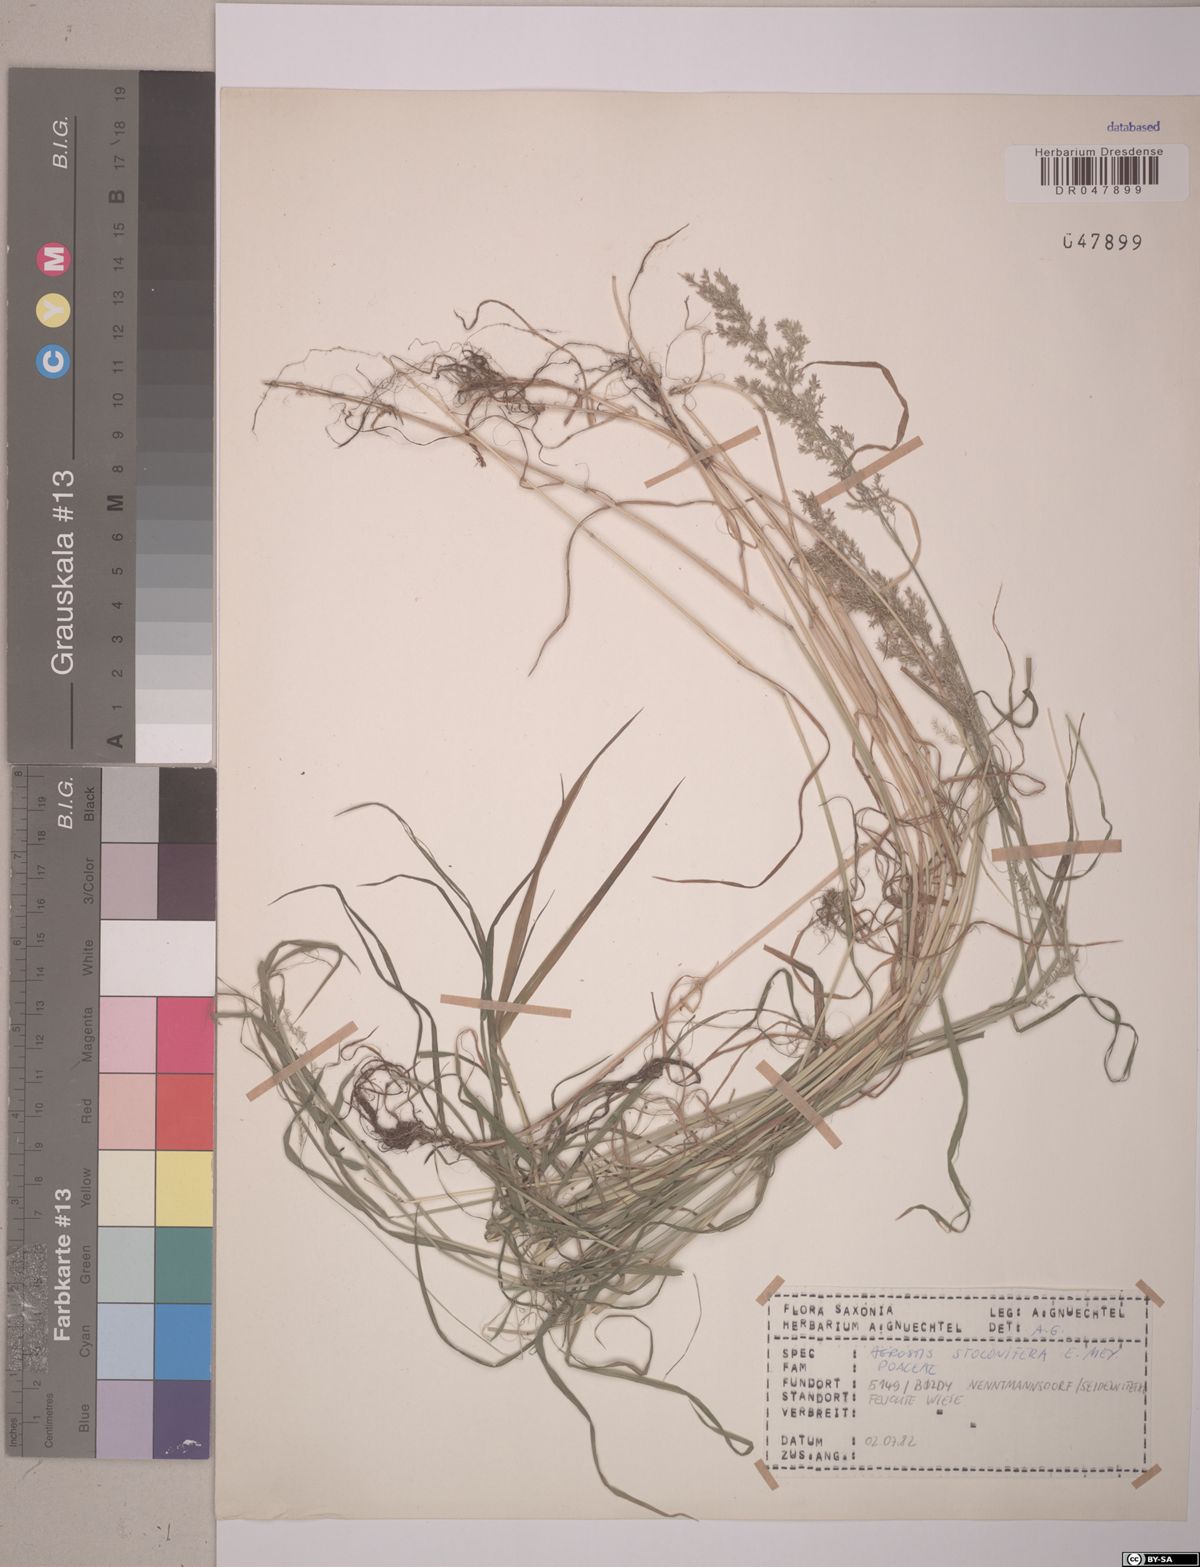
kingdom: Plantae
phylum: Tracheophyta
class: Liliopsida
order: Poales
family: Poaceae
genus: Agrostis
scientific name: Agrostis stolonifera
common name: Creeping bentgrass
